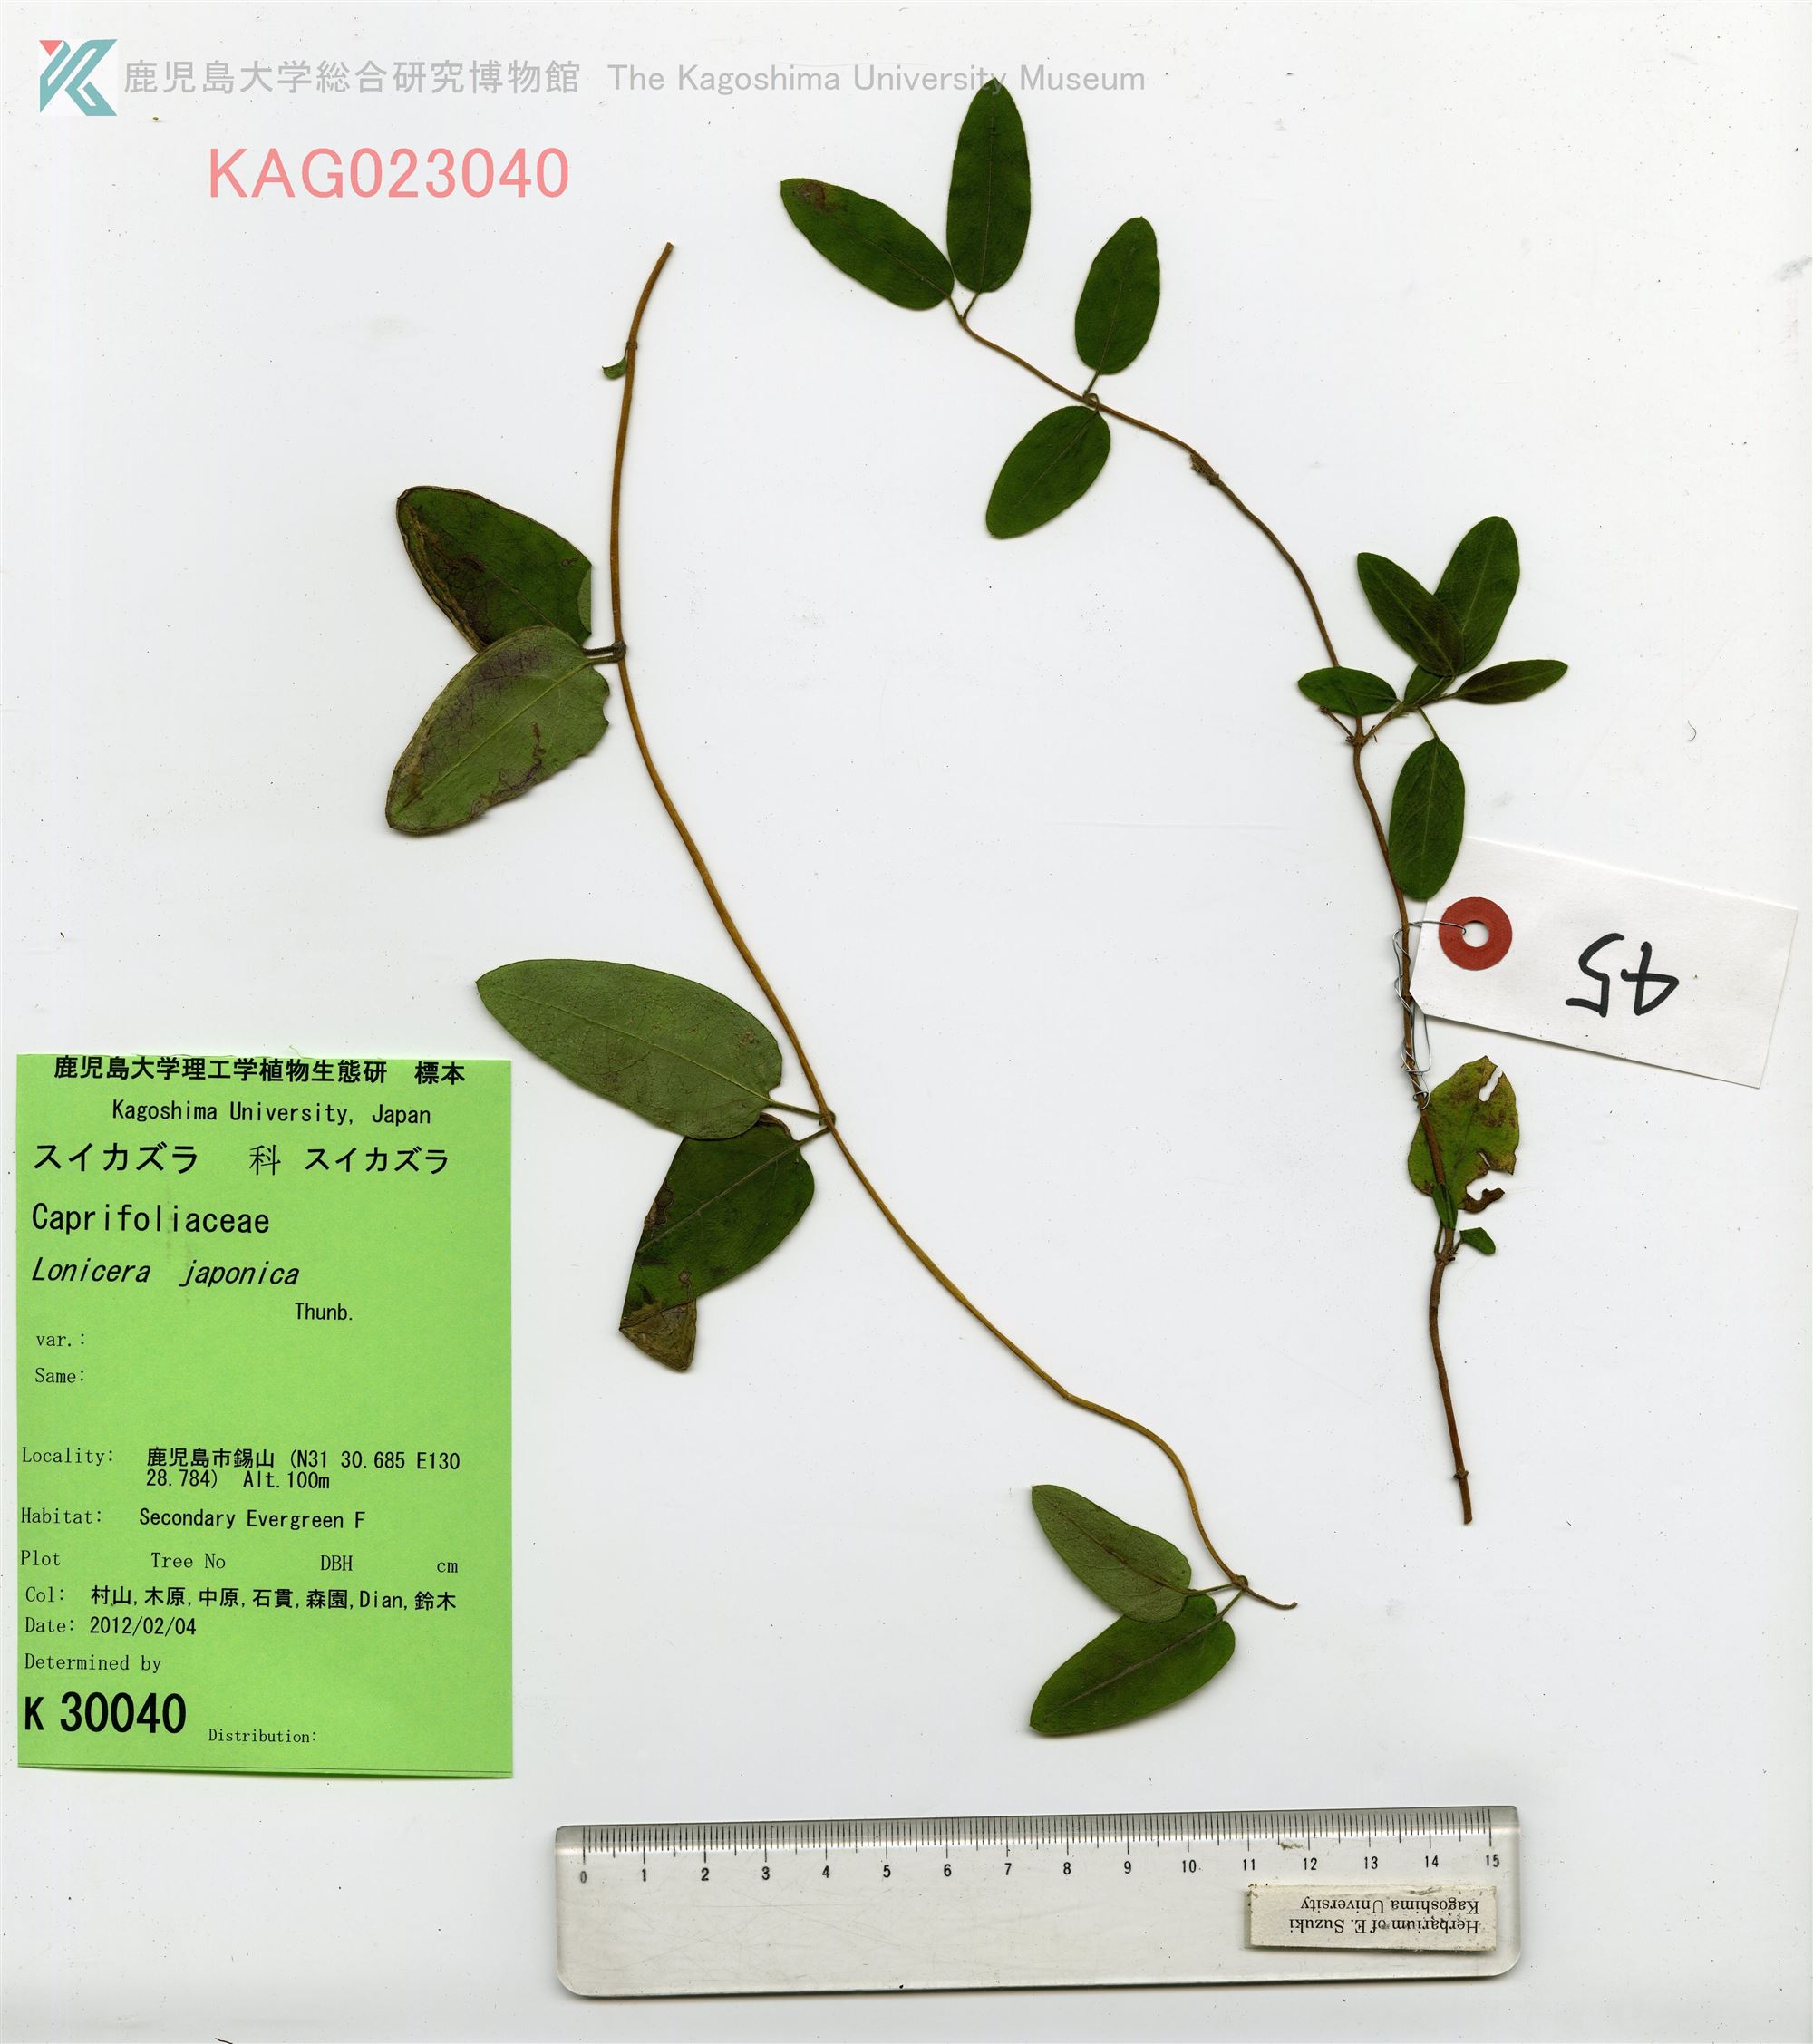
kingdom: Plantae
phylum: Tracheophyta
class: Magnoliopsida
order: Dipsacales
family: Caprifoliaceae
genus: Lonicera
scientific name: Lonicera japonica
